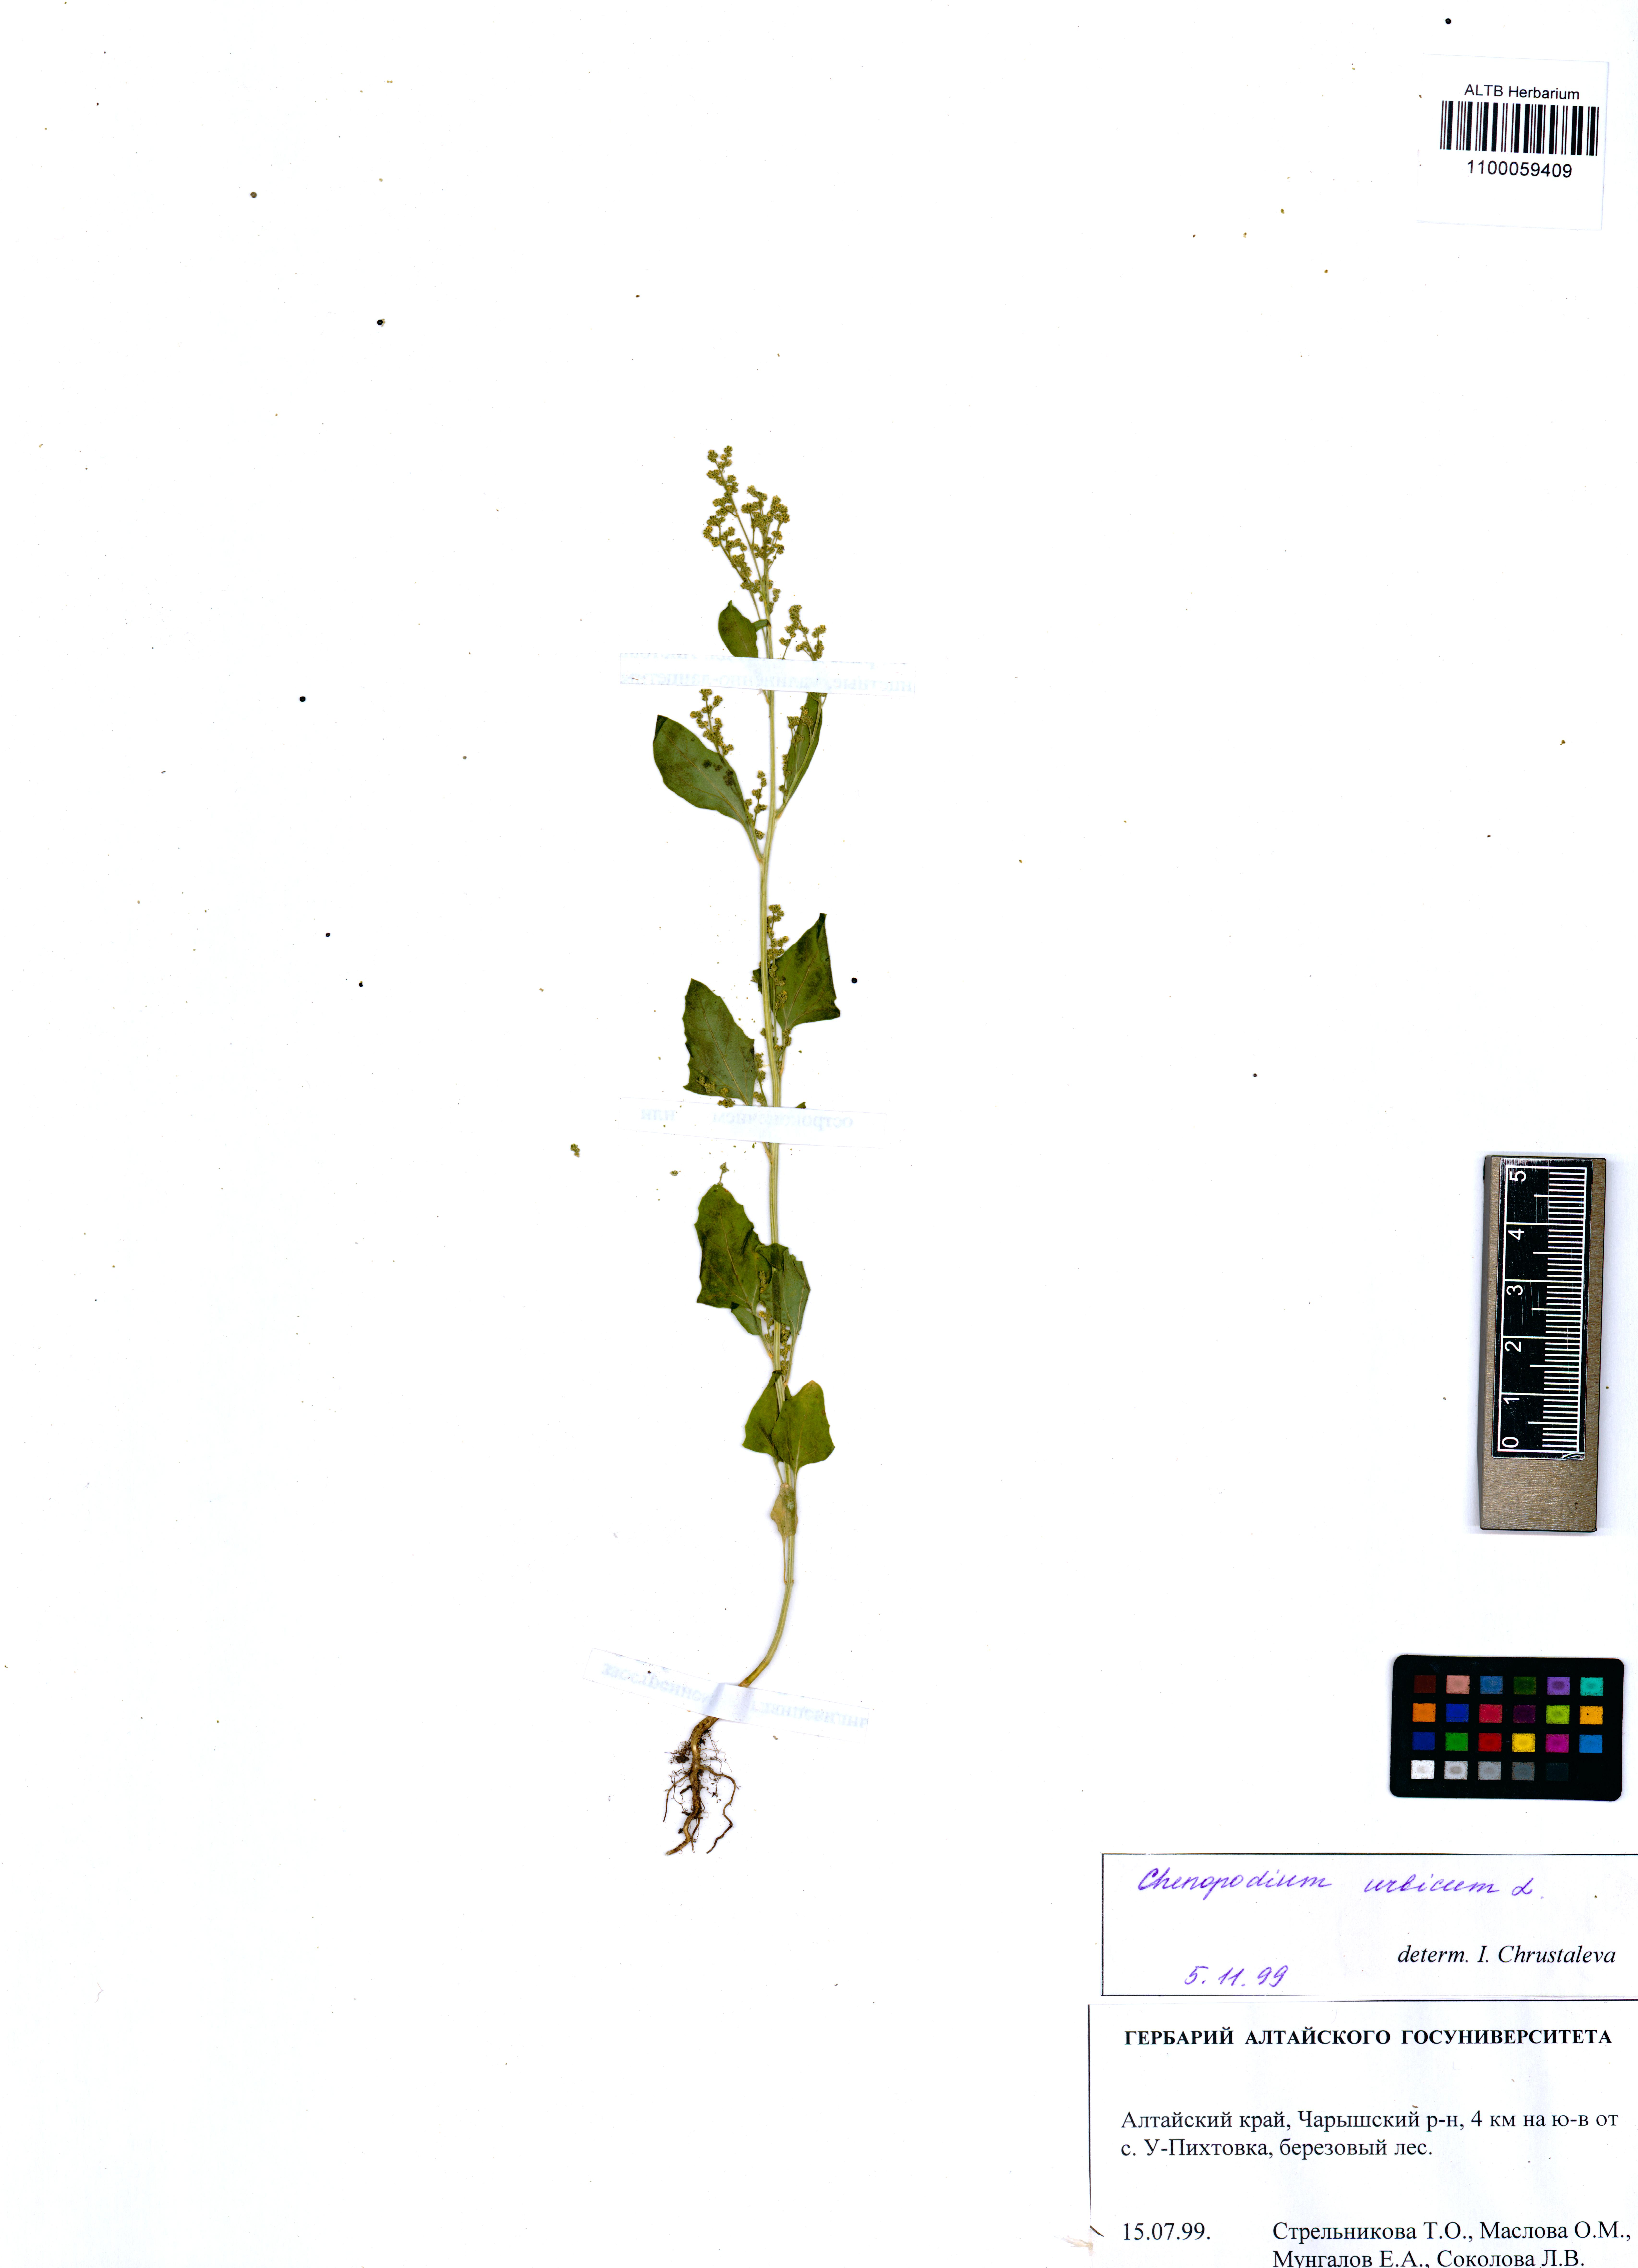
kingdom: Plantae
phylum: Tracheophyta
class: Magnoliopsida
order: Caryophyllales
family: Amaranthaceae
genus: Oxybasis
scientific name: Oxybasis urbica
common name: City goosefoot
